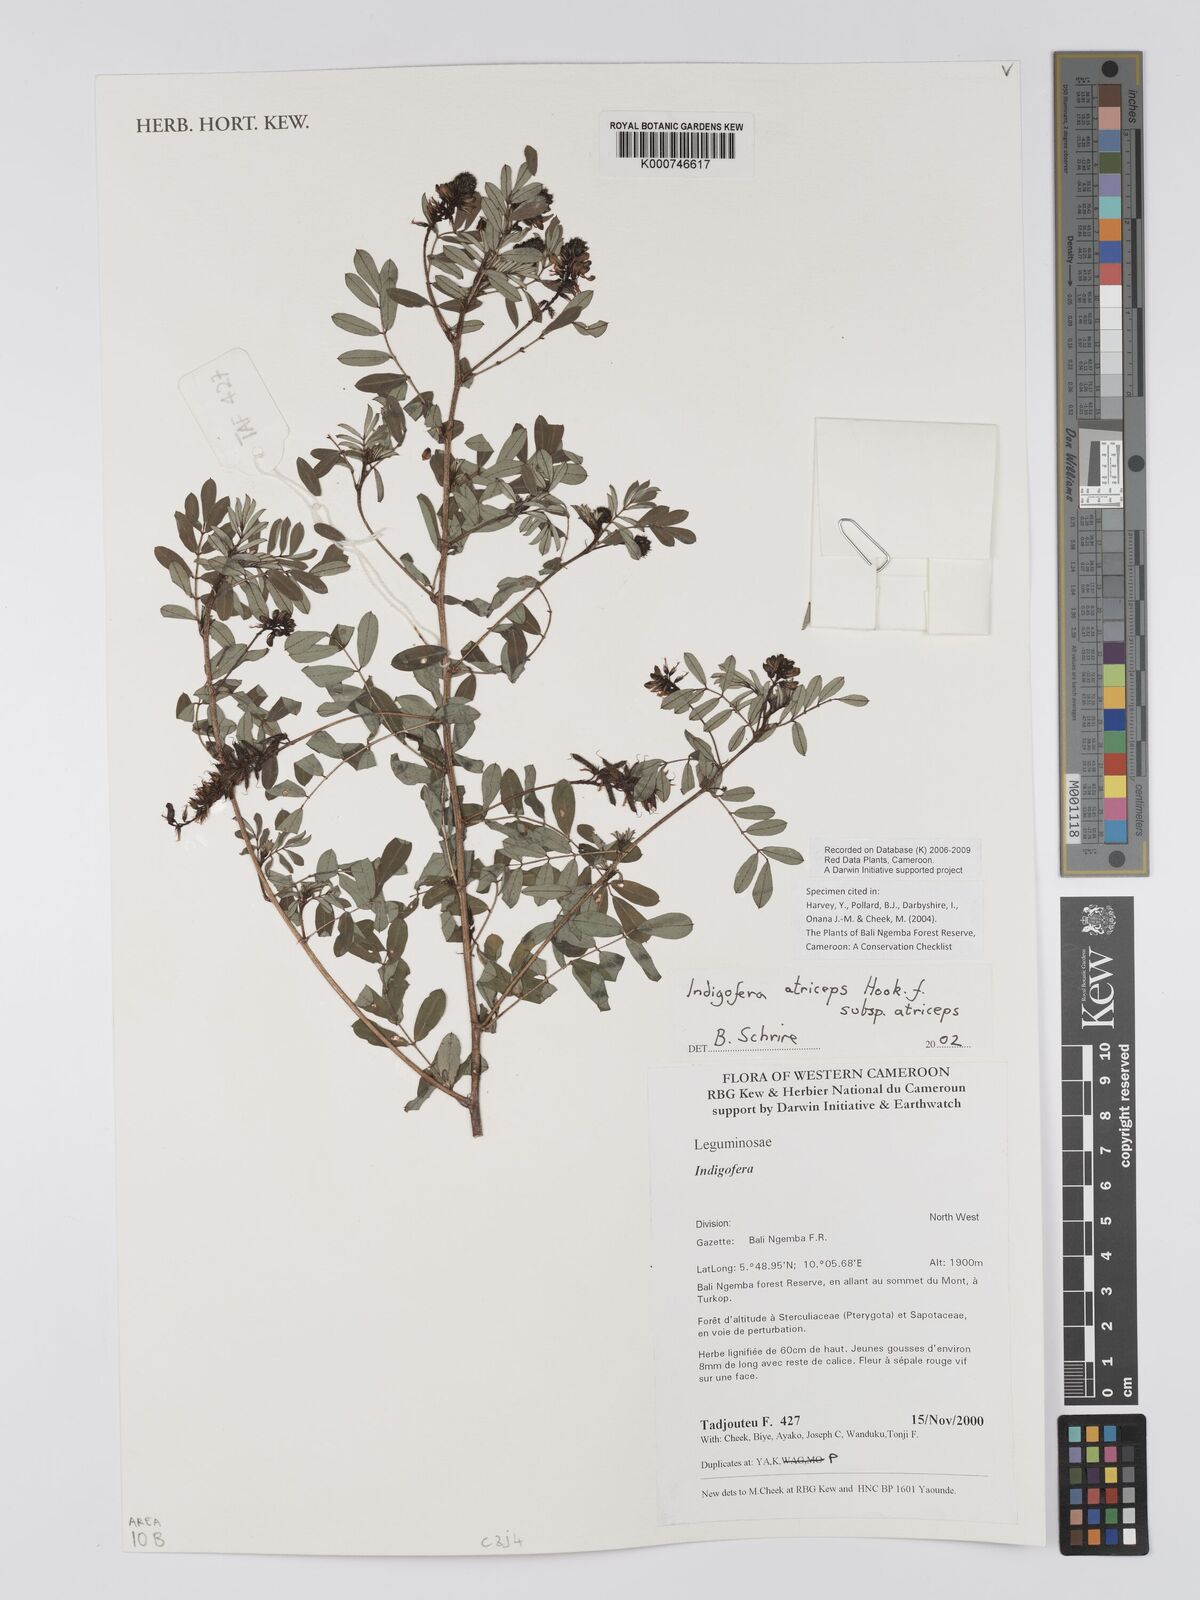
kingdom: Plantae
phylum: Tracheophyta
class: Magnoliopsida
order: Fabales
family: Fabaceae
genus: Indigofera
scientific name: Indigofera atriceps
